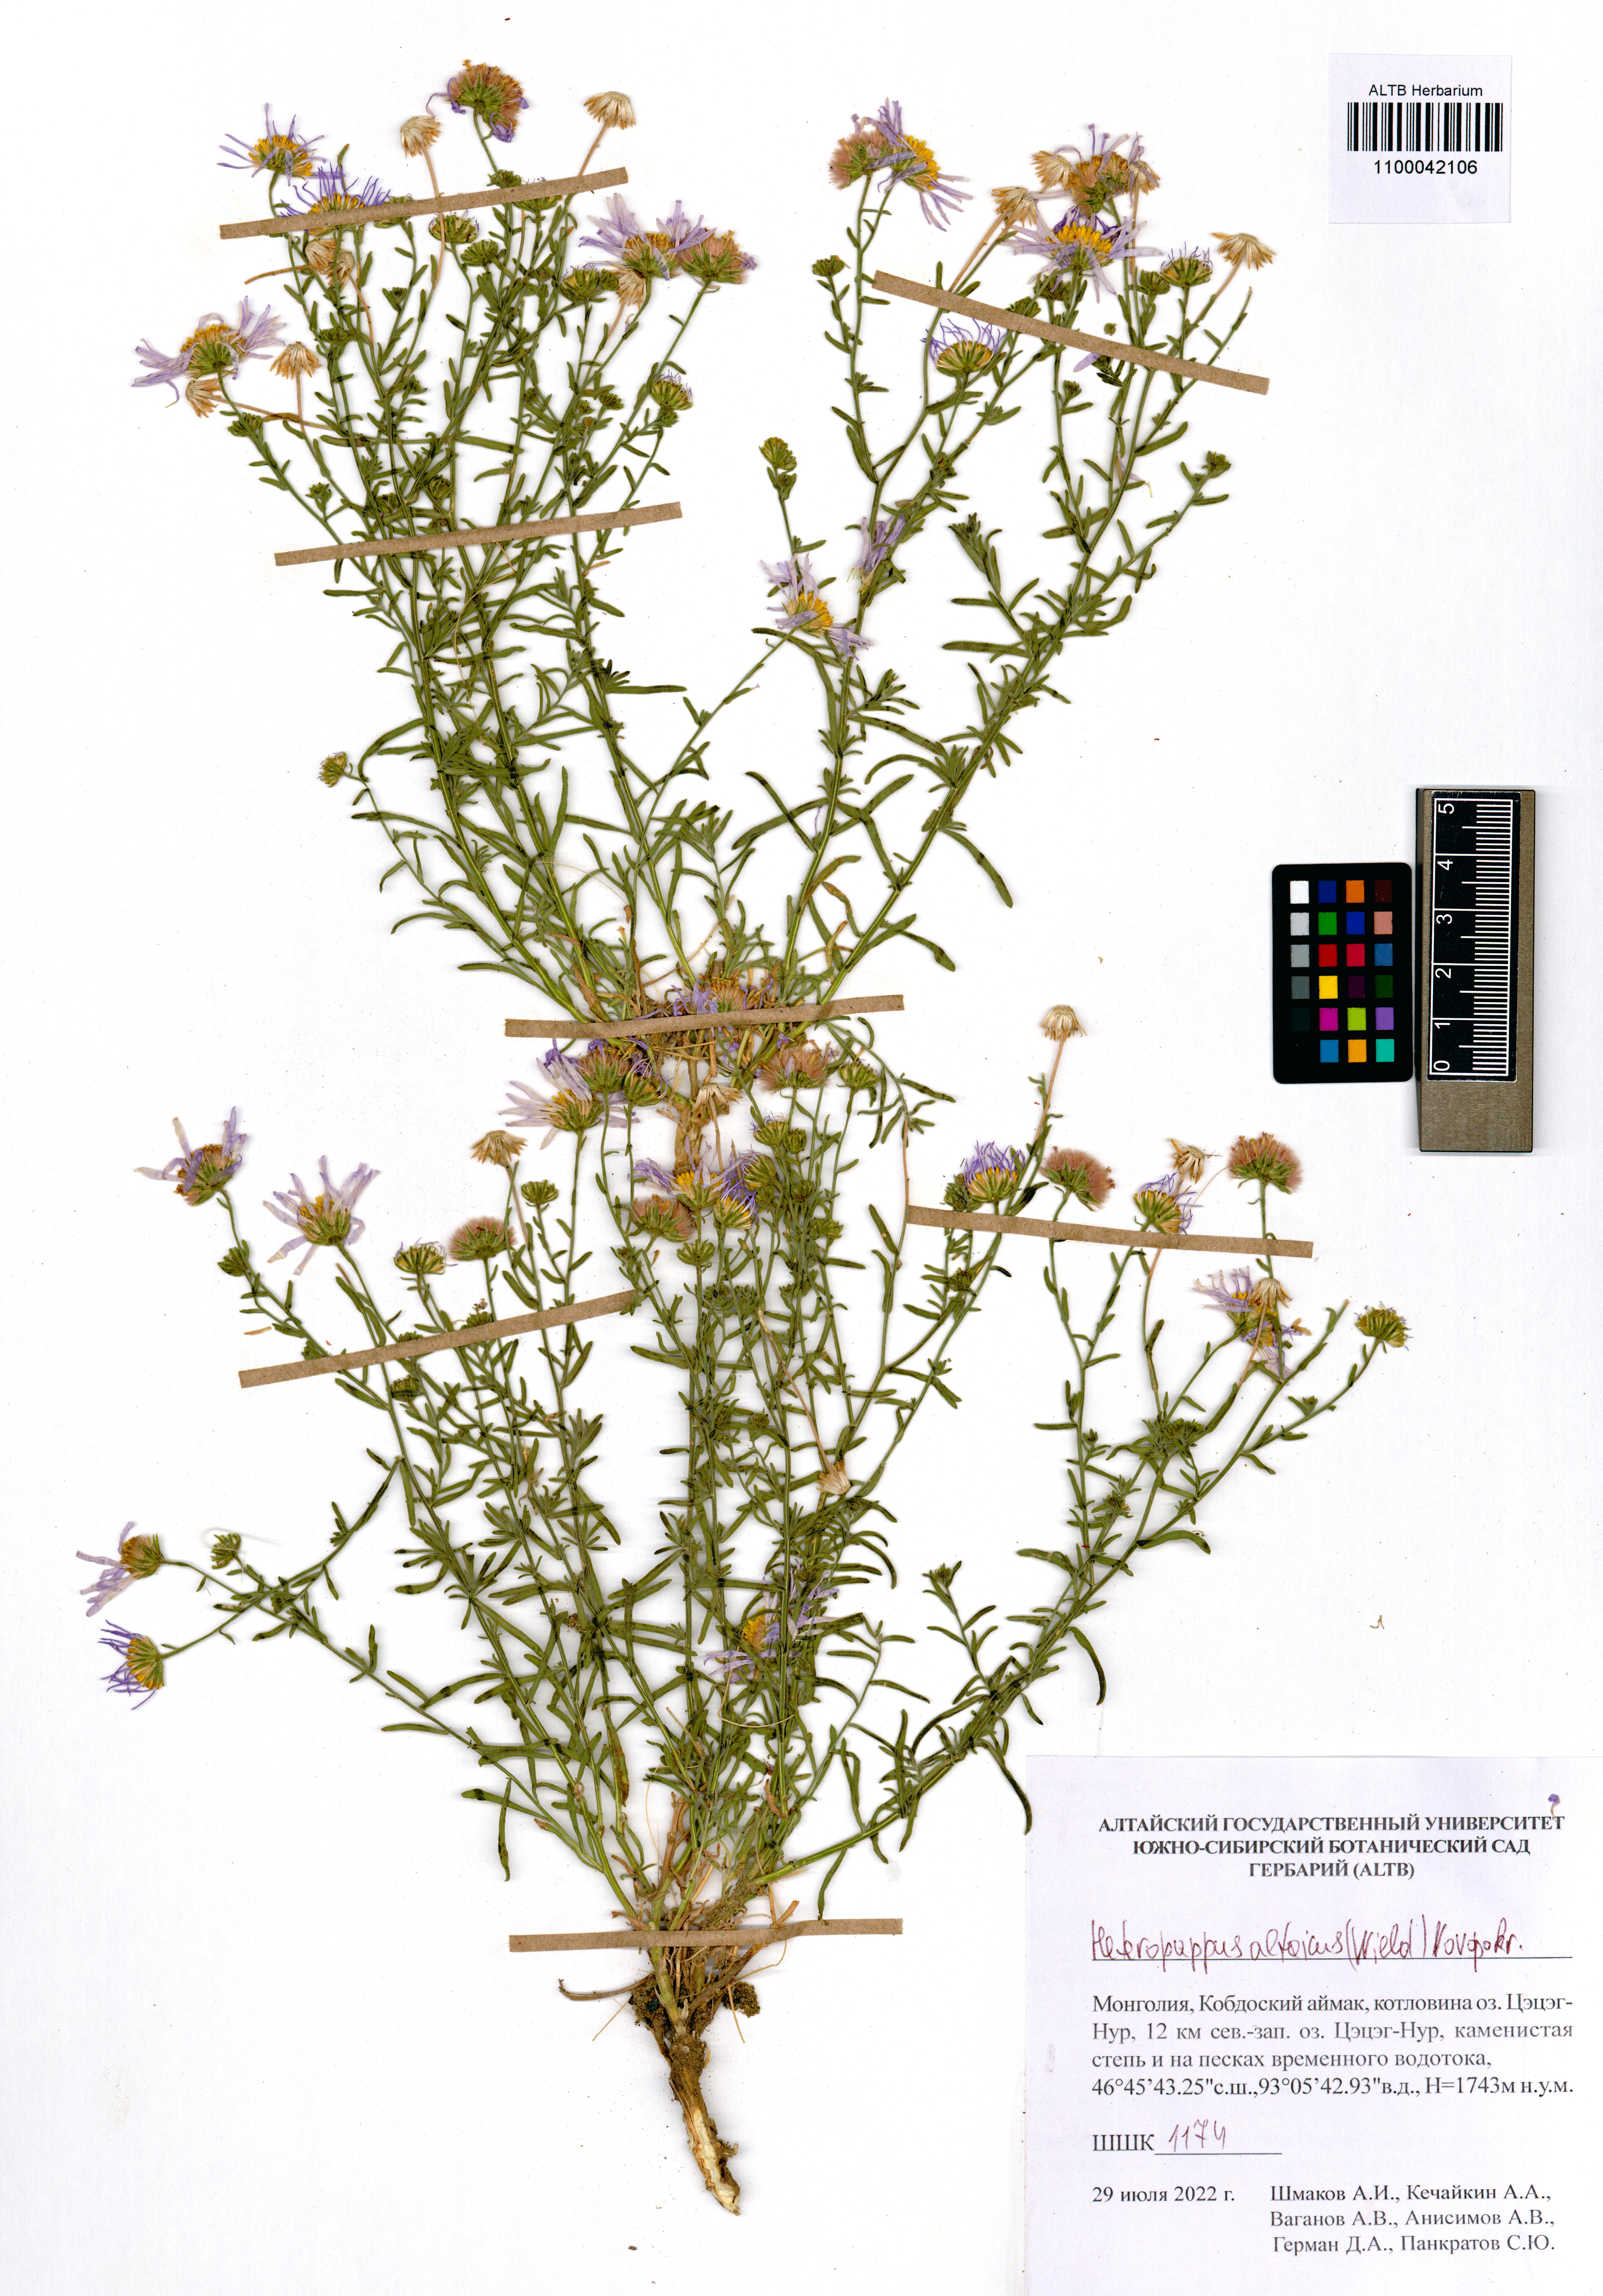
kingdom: Plantae
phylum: Tracheophyta
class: Magnoliopsida
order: Asterales
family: Asteraceae
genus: Heteropappus
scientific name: Heteropappus altaicus
